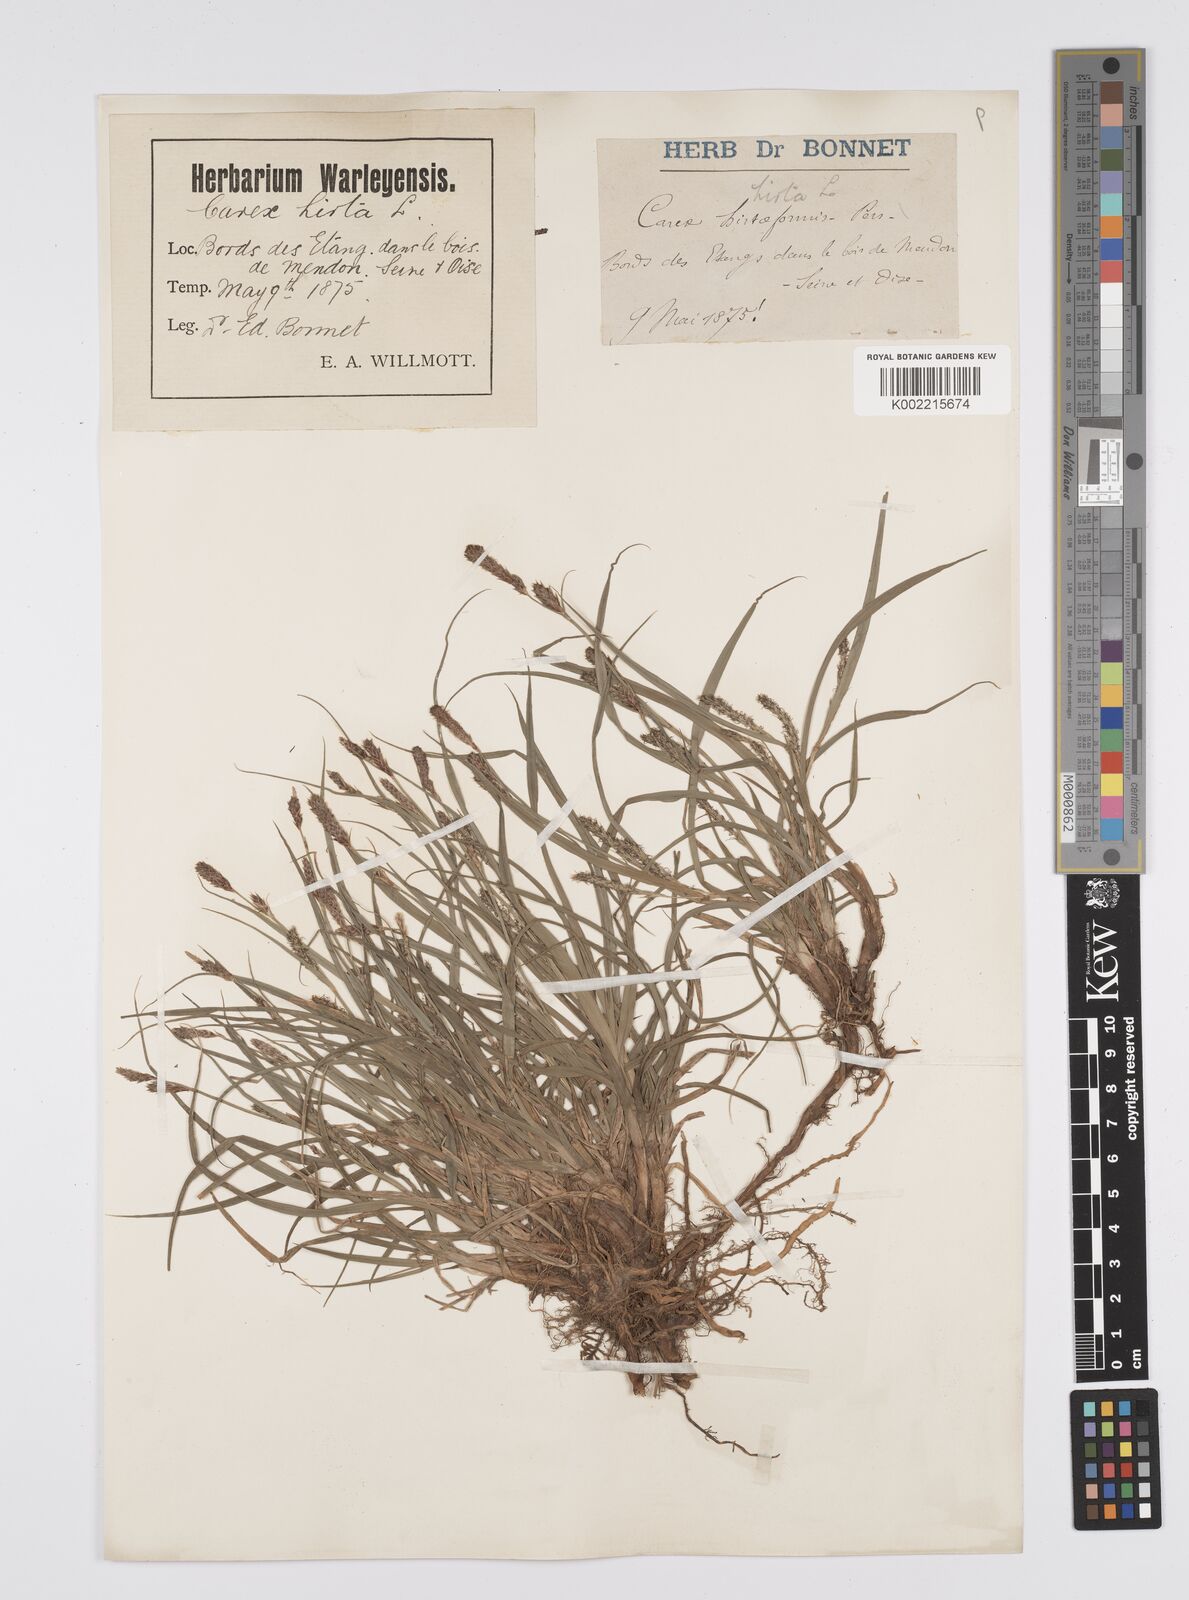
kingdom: Plantae
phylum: Tracheophyta
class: Liliopsida
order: Poales
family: Cyperaceae
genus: Carex
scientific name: Carex hirta
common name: Hairy sedge
